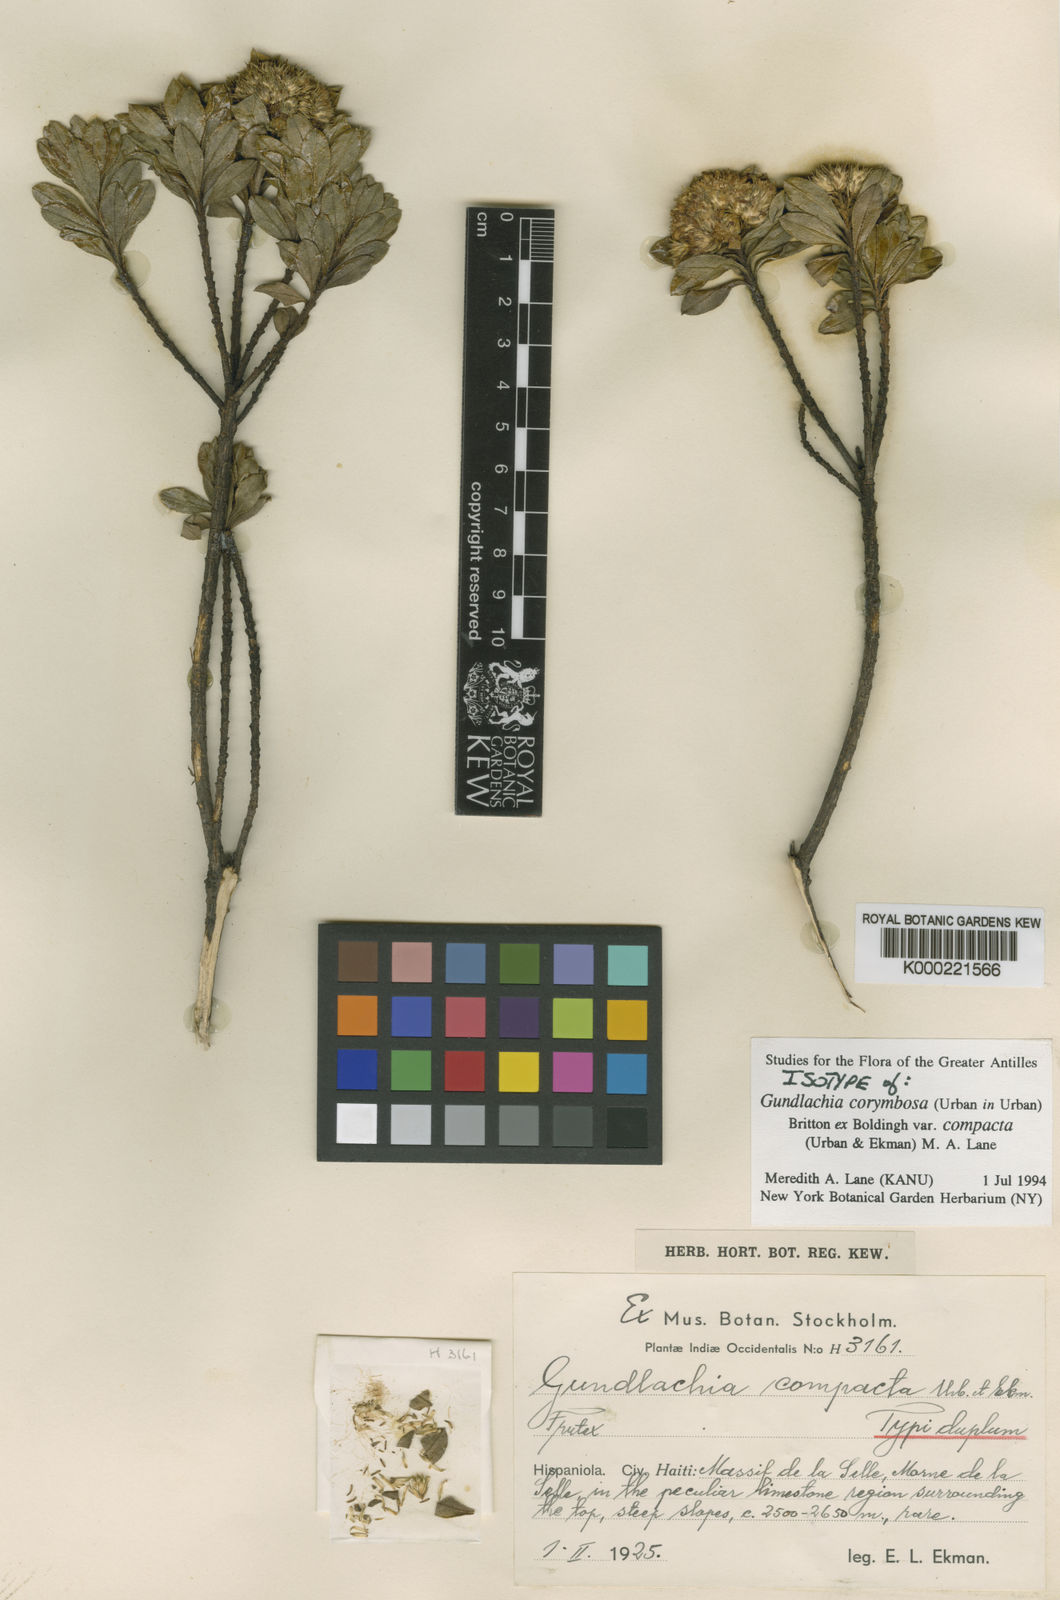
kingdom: Plantae
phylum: Tracheophyta
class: Magnoliopsida
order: Asterales
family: Asteraceae
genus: Gundlachia
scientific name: Gundlachia corymbosa
